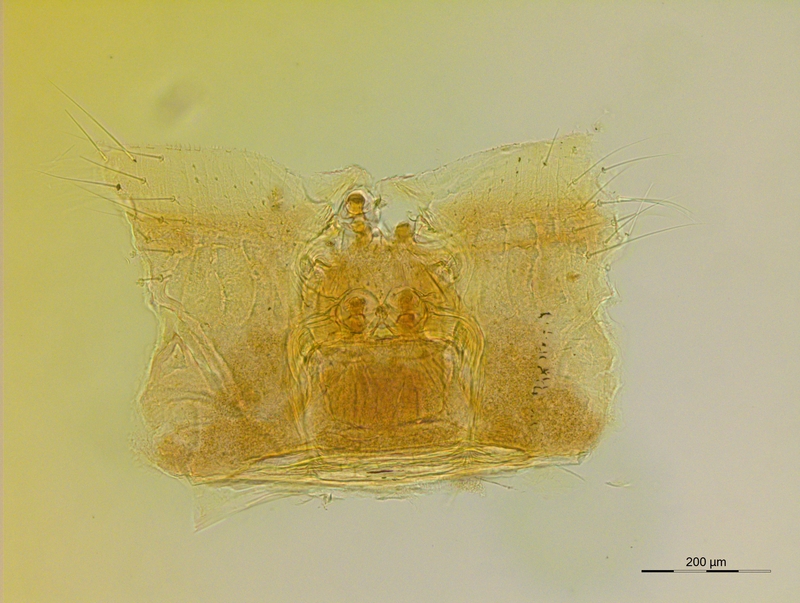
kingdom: Animalia
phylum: Arthropoda
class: Diplopoda
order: Julida
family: Trichoblaniulidae
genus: Trichoblaniulus
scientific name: Trichoblaniulus hirsutus
